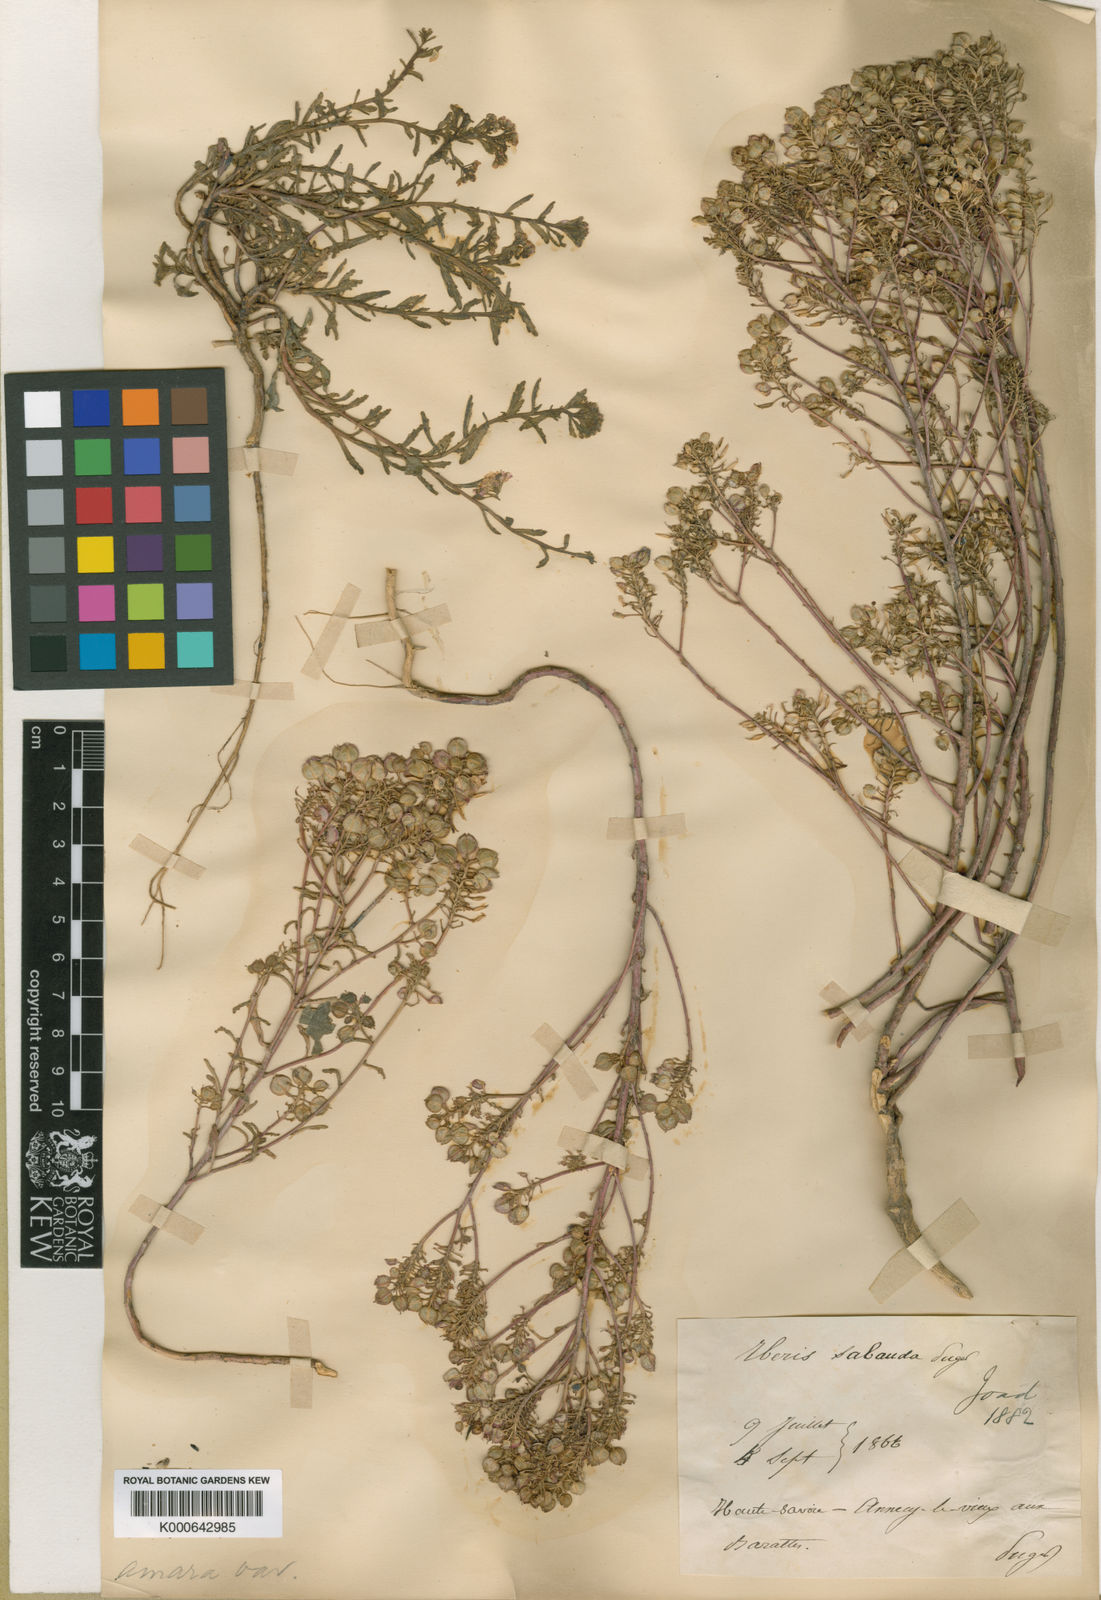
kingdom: Plantae
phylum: Tracheophyta
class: Magnoliopsida
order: Brassicales
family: Brassicaceae
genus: Iberis
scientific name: Iberis amara
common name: Annual candytuft
